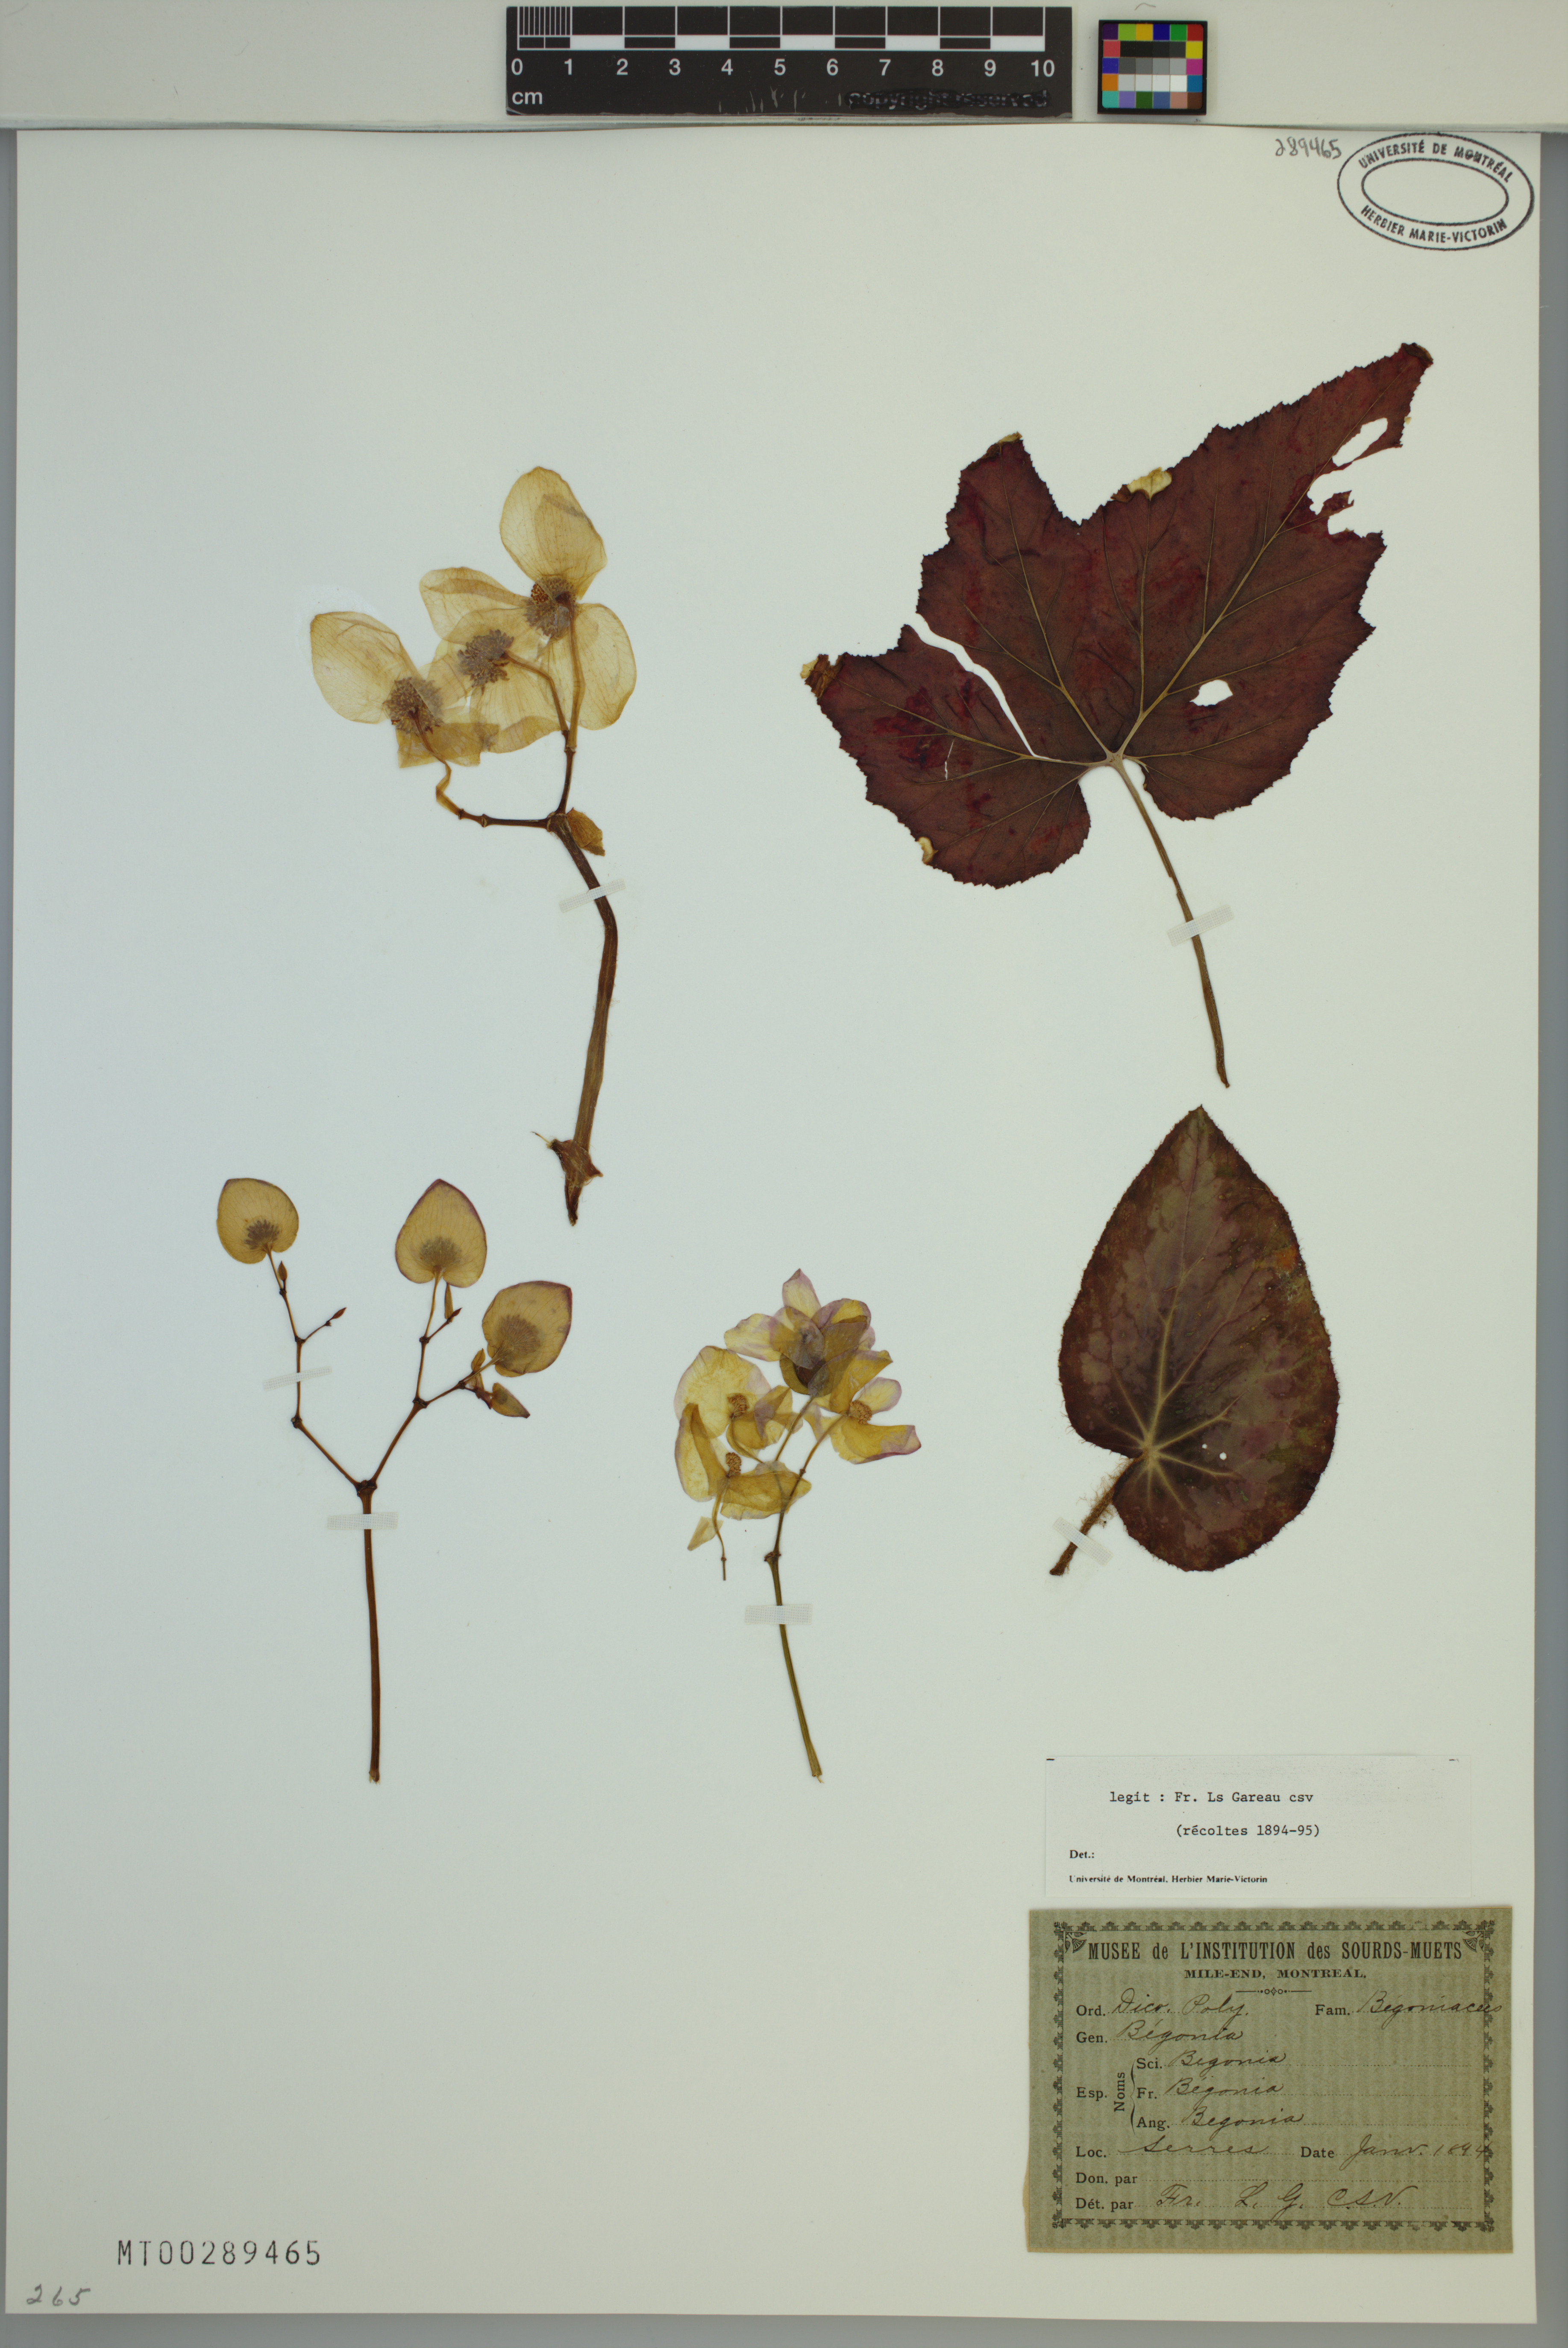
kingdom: Plantae
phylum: Tracheophyta
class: Magnoliopsida
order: Cucurbitales
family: Begoniaceae
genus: Begonia
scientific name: Begonia
